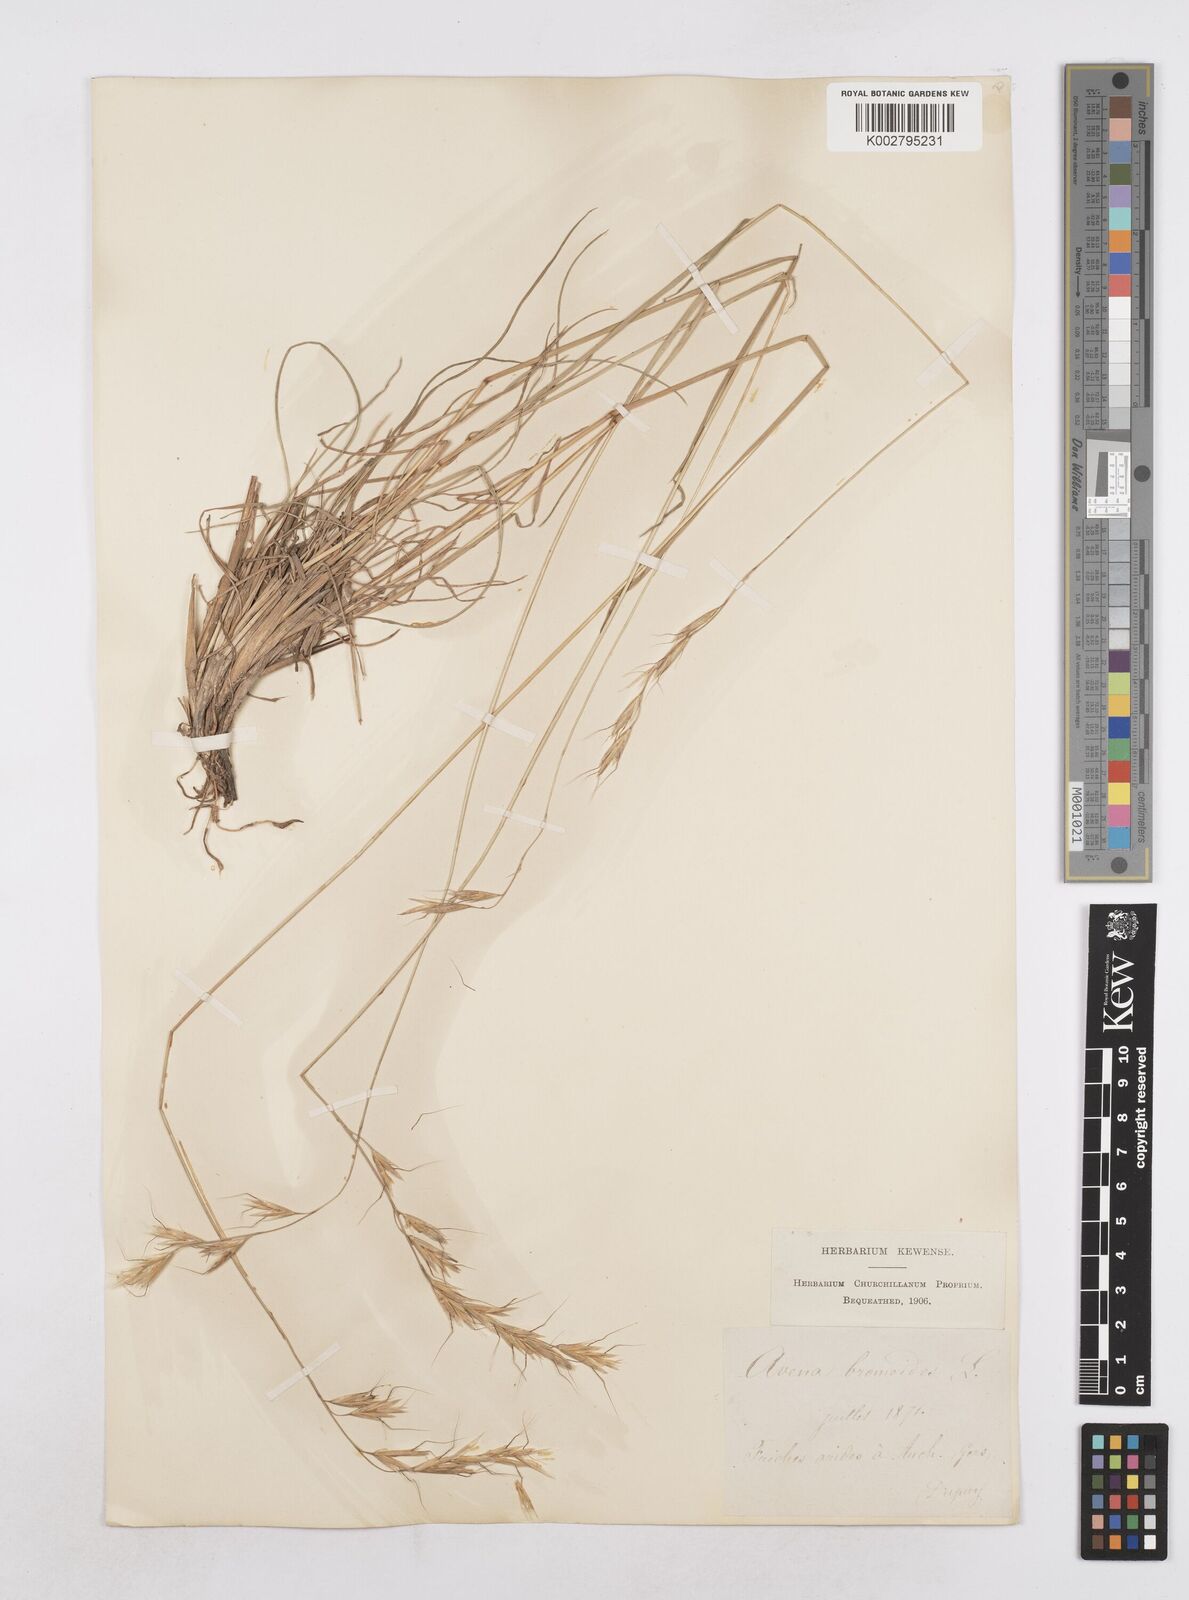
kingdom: Plantae
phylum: Tracheophyta
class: Liliopsida
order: Poales
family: Poaceae
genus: Helictochloa
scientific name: Helictochloa bromoides
